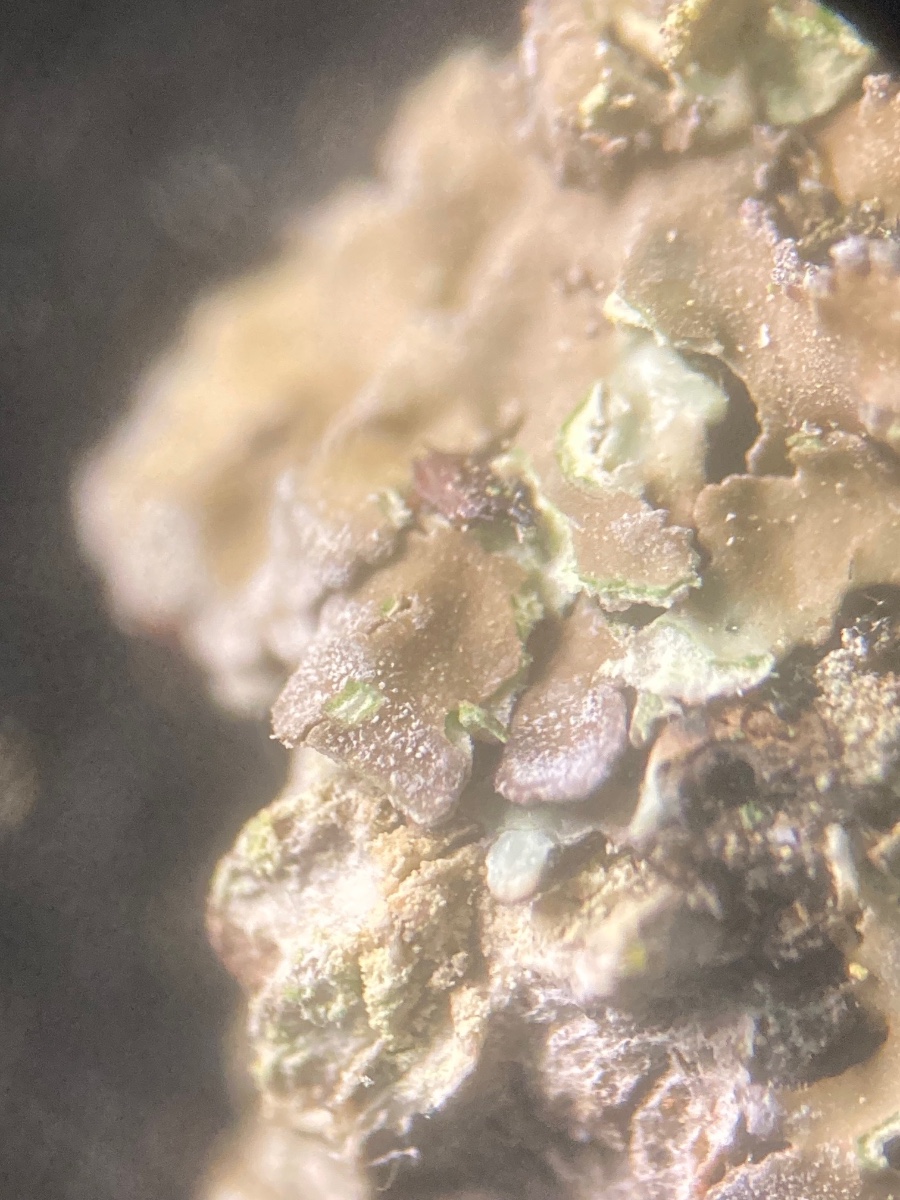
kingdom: Fungi
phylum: Ascomycota
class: Lecanoromycetes
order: Caliciales
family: Physciaceae
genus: Physconia
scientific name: Physconia enteroxantha
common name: grynet dugrosetlav
